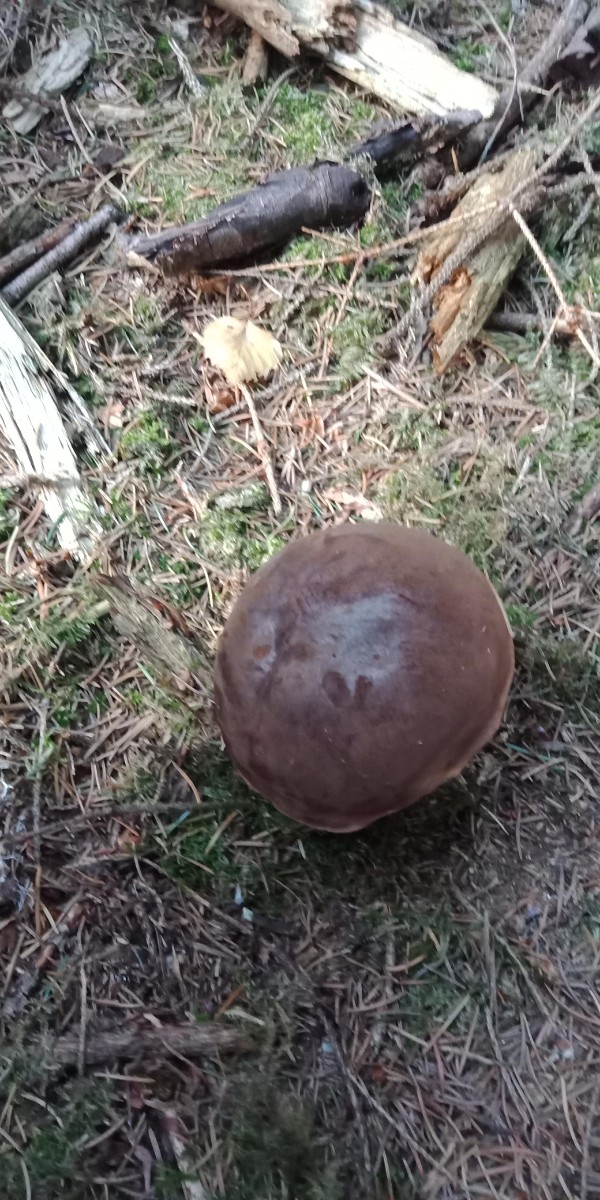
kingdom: Fungi
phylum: Basidiomycota
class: Agaricomycetes
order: Boletales
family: Boletaceae
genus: Imleria
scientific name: Imleria badia
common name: brunstokket rørhat
